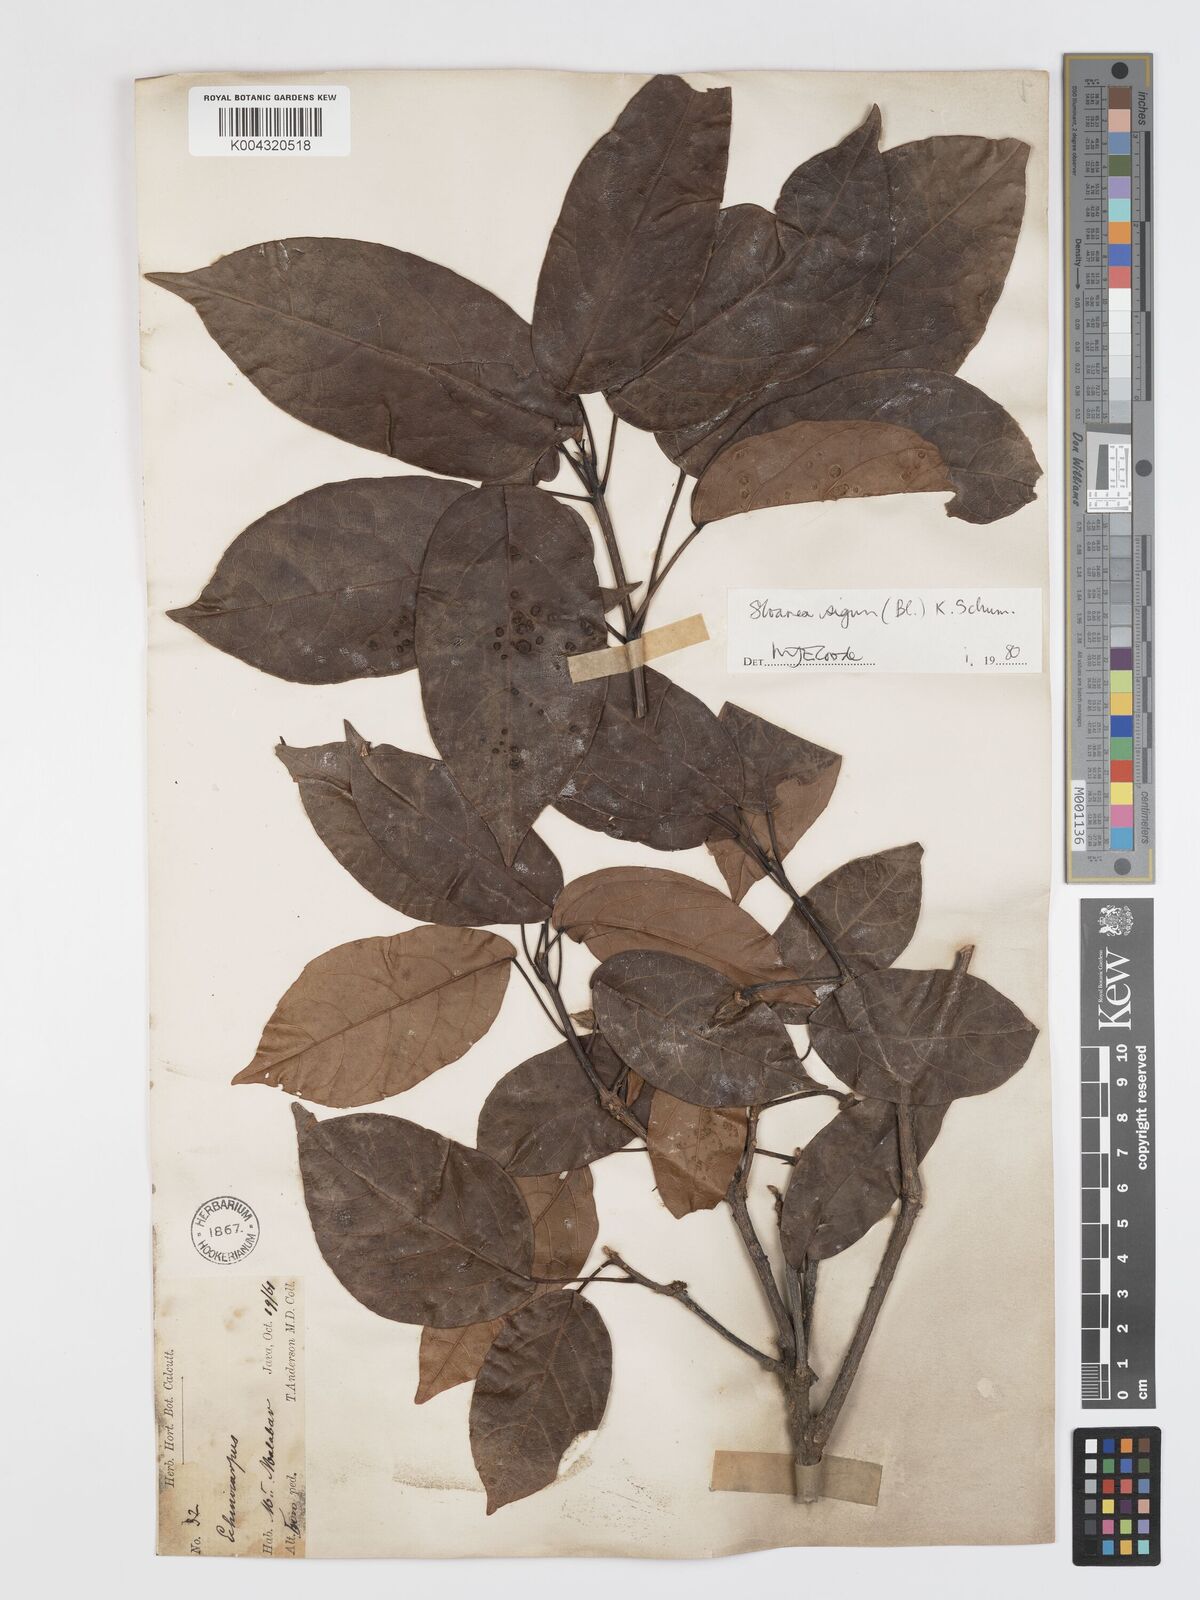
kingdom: Plantae
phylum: Tracheophyta
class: Magnoliopsida
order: Oxalidales
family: Elaeocarpaceae
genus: Sloanea
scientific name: Sloanea sigun
